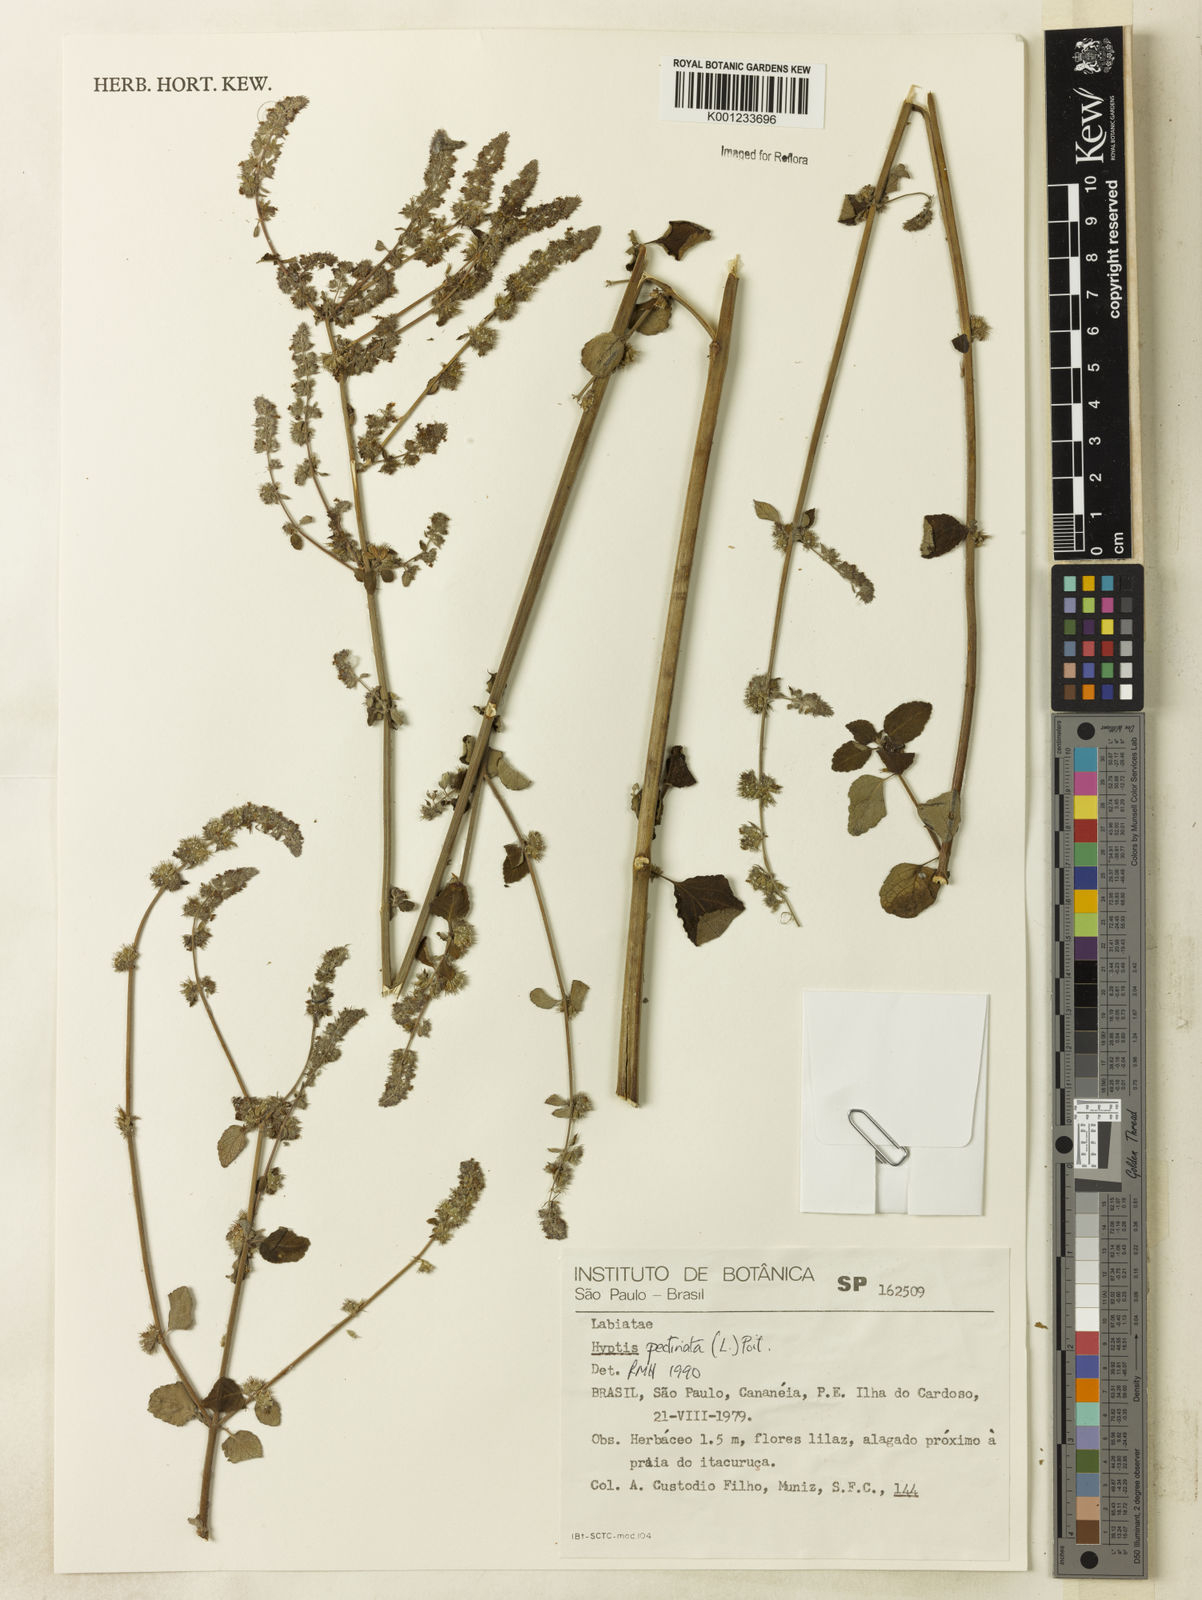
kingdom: Plantae
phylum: Tracheophyta
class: Magnoliopsida
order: Lamiales
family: Lamiaceae
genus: Mesosphaerum
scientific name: Mesosphaerum pectinatum
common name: Comb hyptis
